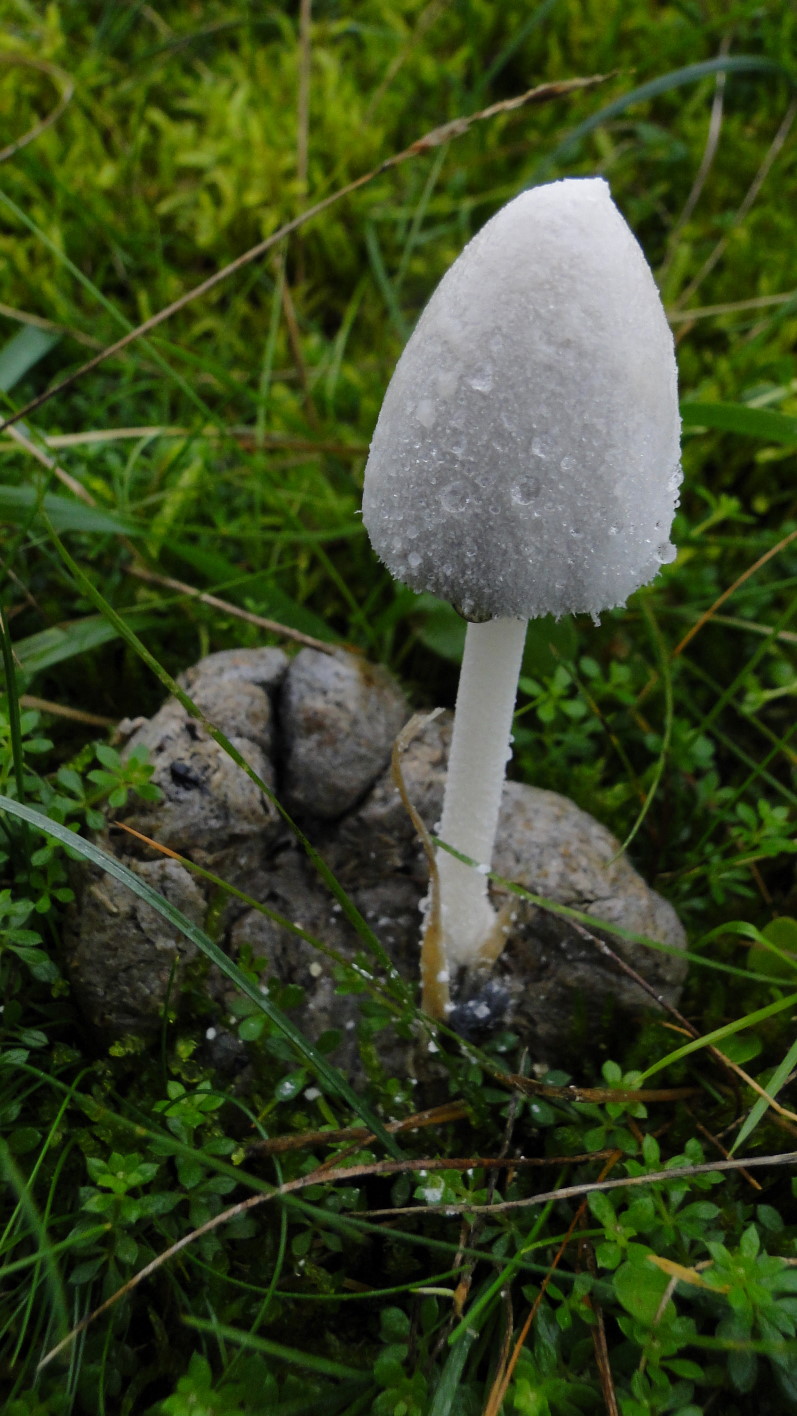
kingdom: Fungi
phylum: Basidiomycota
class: Agaricomycetes
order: Agaricales
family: Psathyrellaceae
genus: Coprinopsis
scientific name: Coprinopsis nivea
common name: snehvid blækhat
